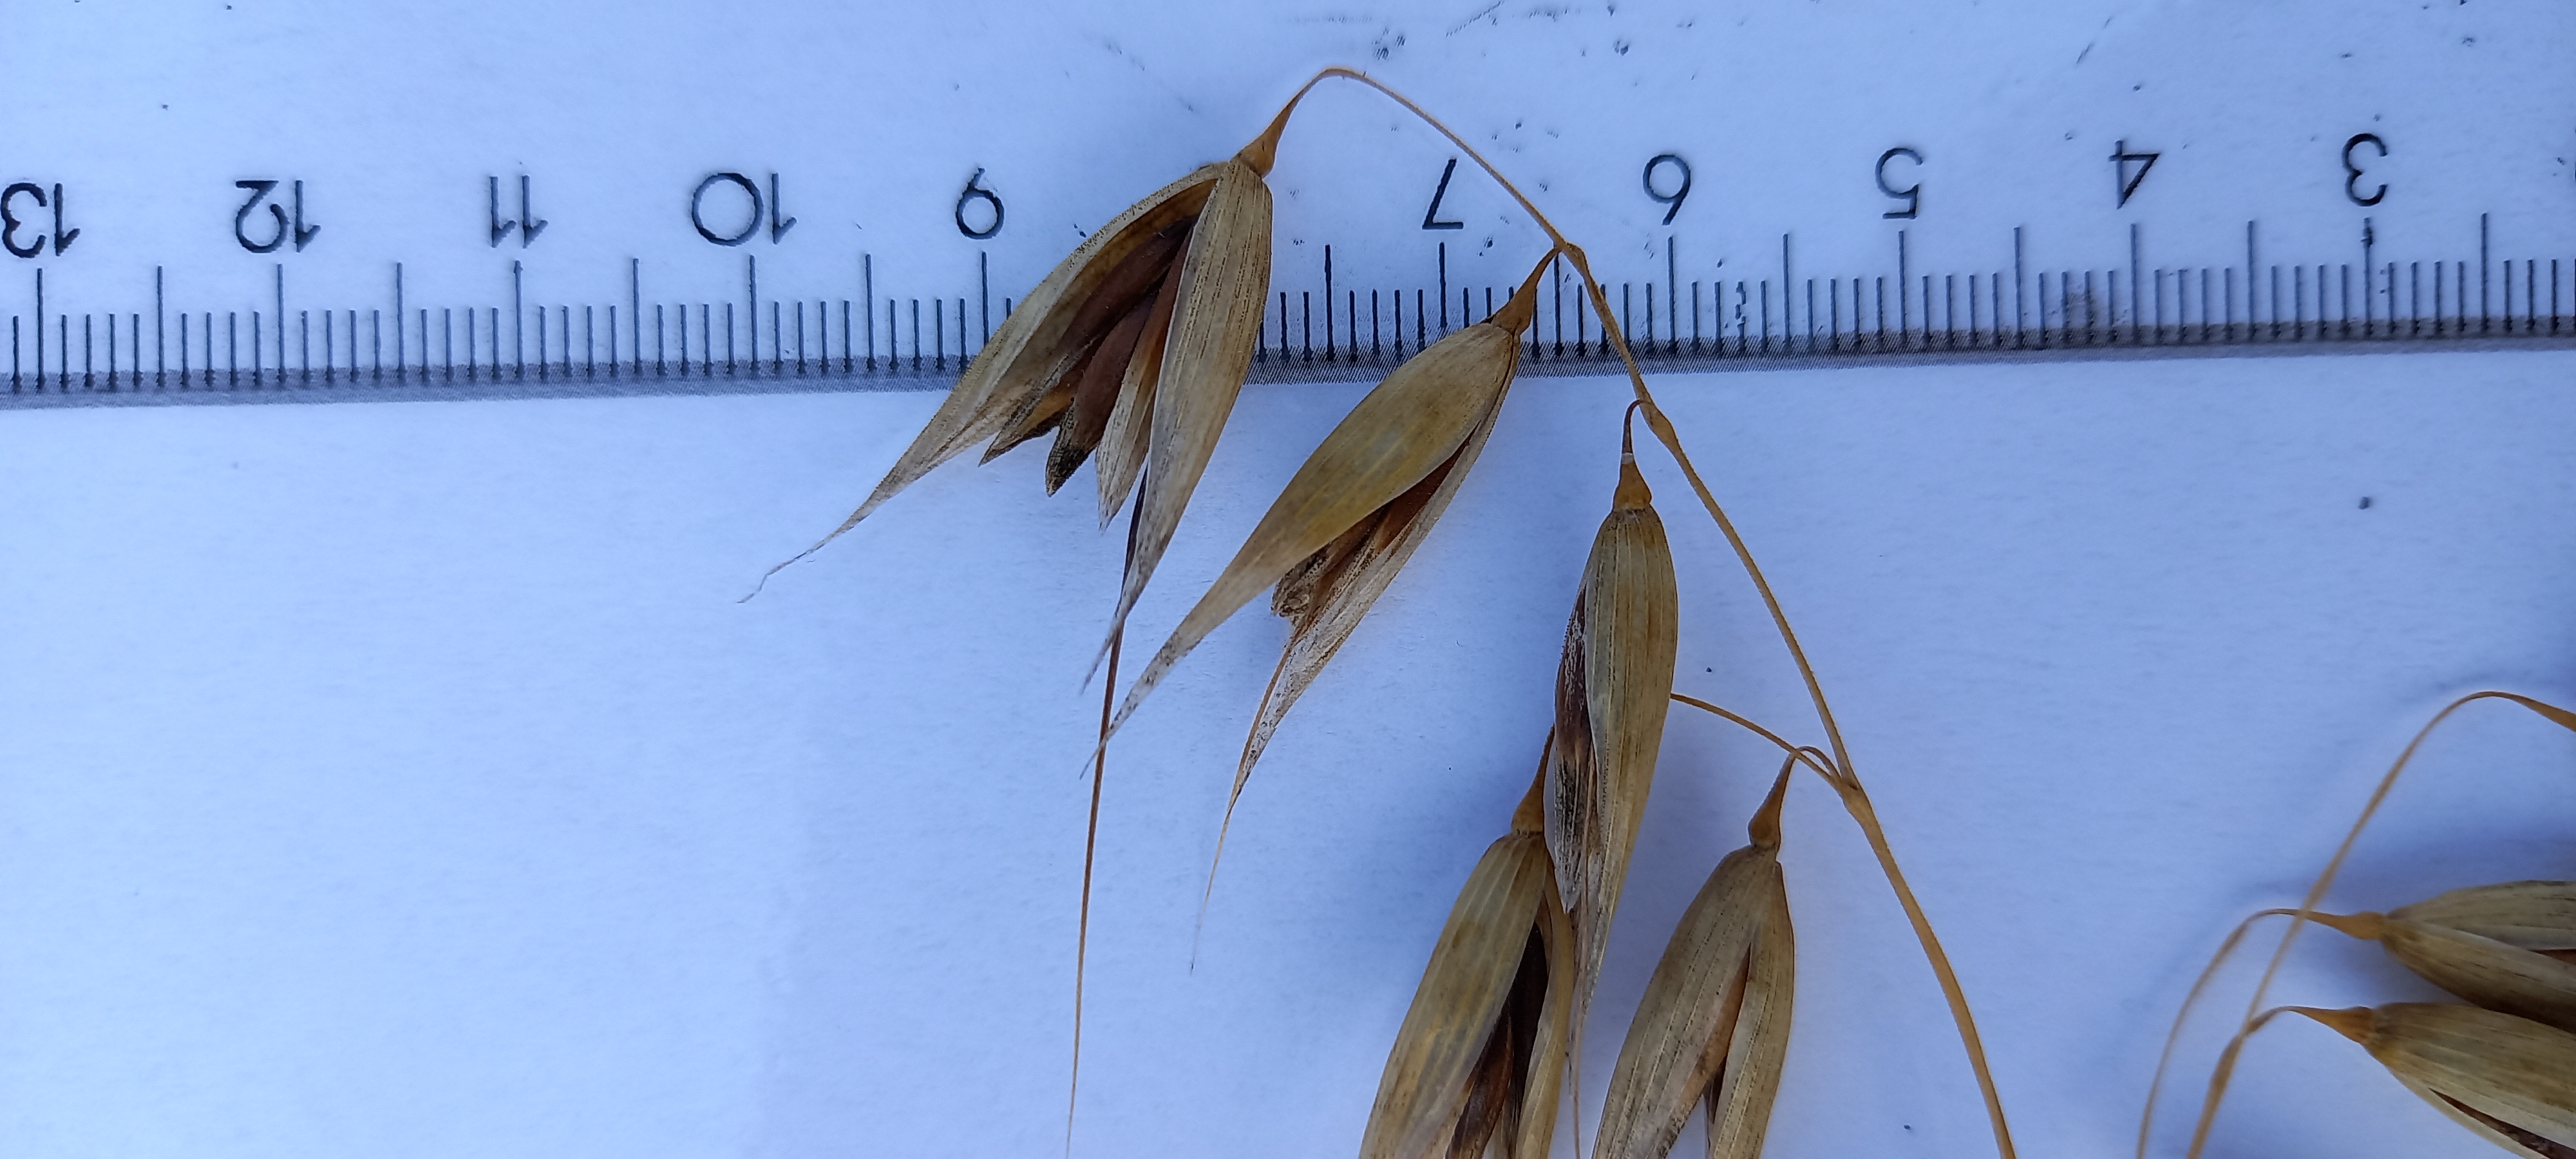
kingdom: Plantae
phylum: Tracheophyta
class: Liliopsida
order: Poales
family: Poaceae
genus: Avena
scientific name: Avena sativa
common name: Oat
